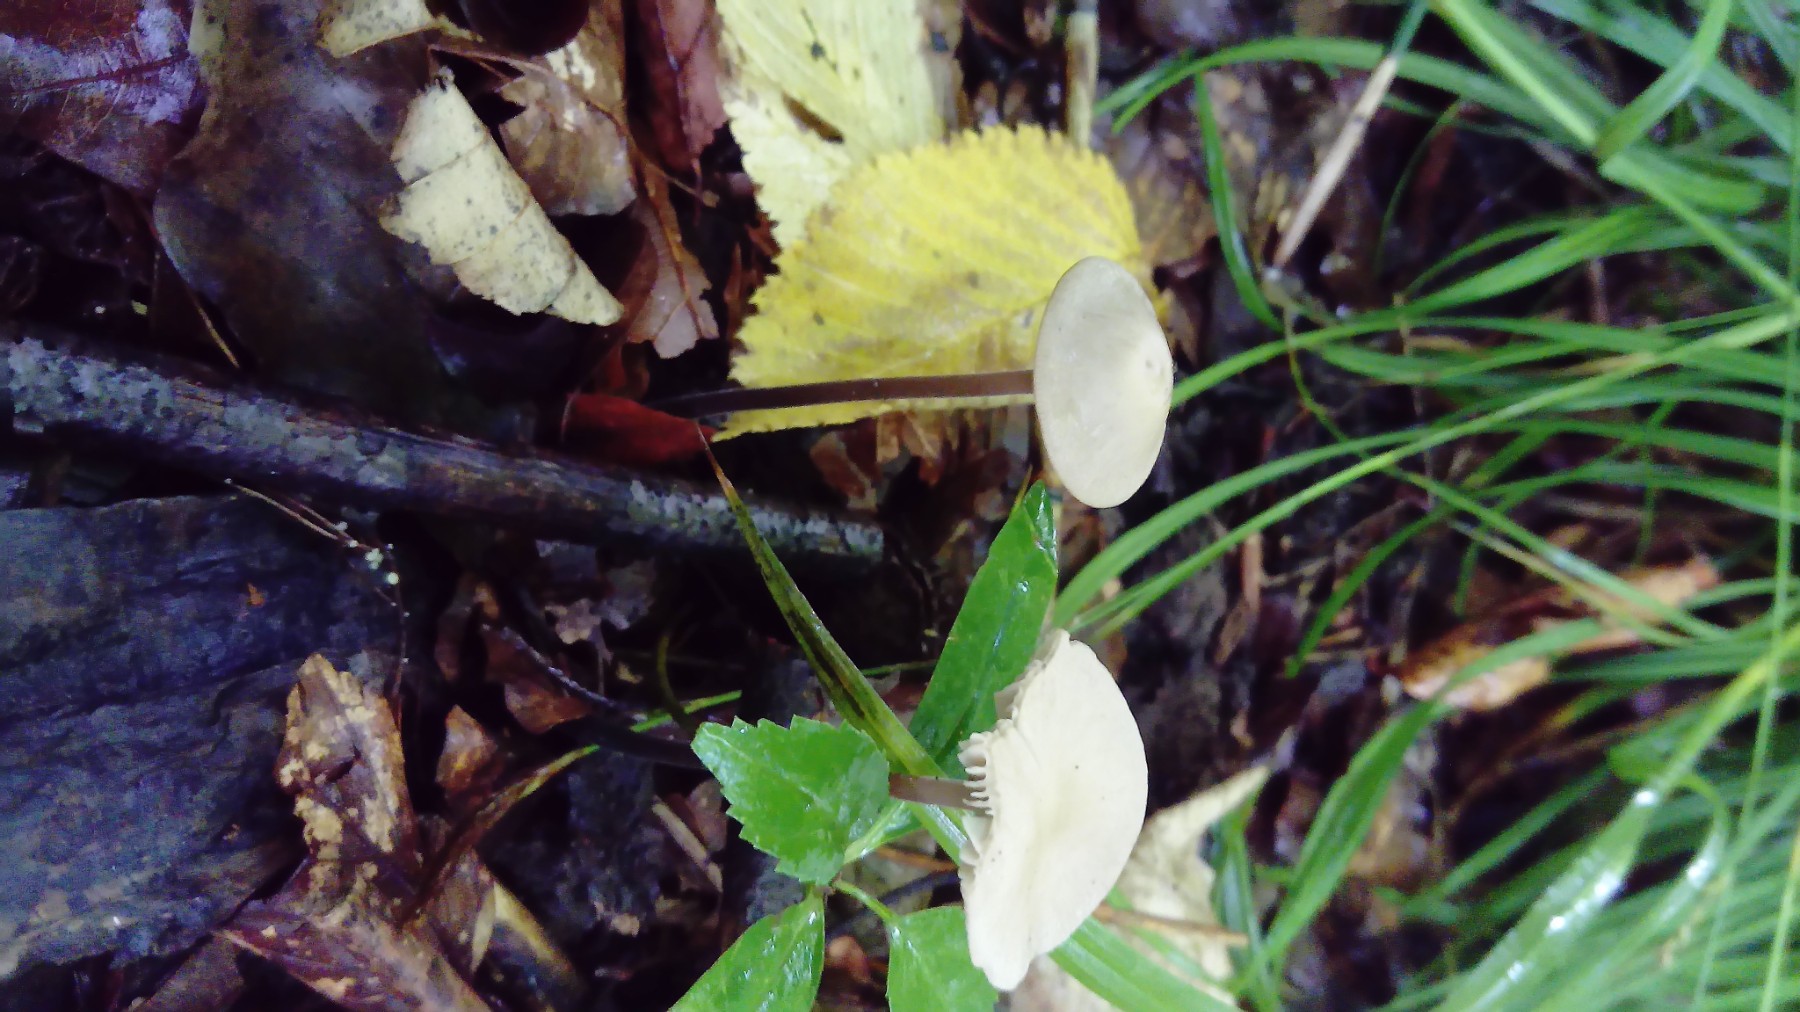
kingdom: Fungi
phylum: Basidiomycota
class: Agaricomycetes
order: Agaricales
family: Omphalotaceae
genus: Mycetinis
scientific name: Mycetinis alliaceus
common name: stor løghat
